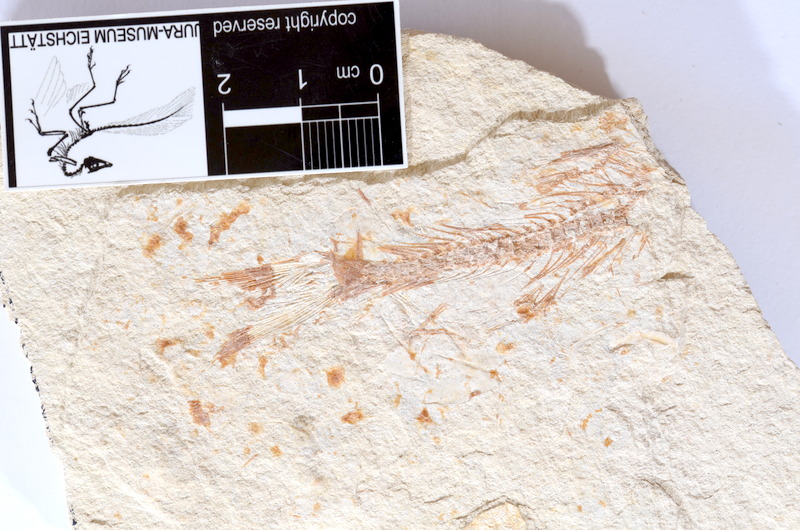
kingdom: Animalia
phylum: Chordata
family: Ascalaboidae
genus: Tharsis
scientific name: Tharsis dubius
